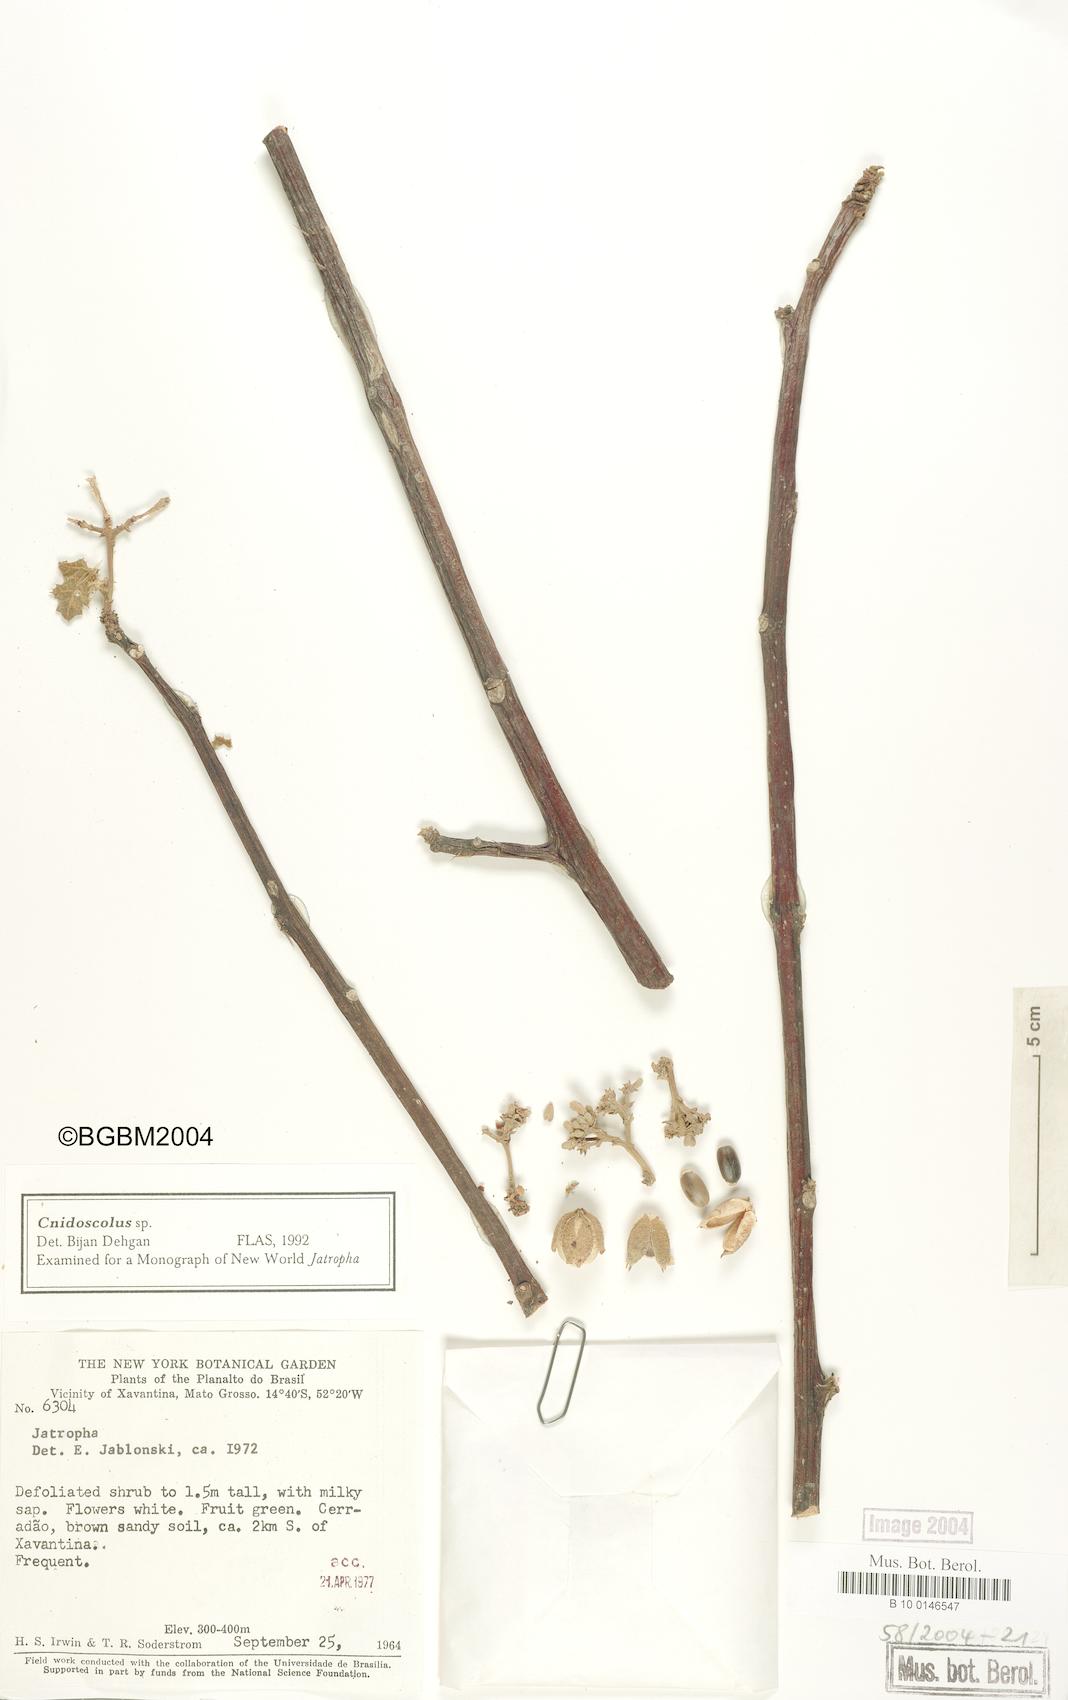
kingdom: Plantae
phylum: Tracheophyta
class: Magnoliopsida
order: Malpighiales
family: Euphorbiaceae
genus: Cnidoscolus
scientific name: Cnidoscolus
